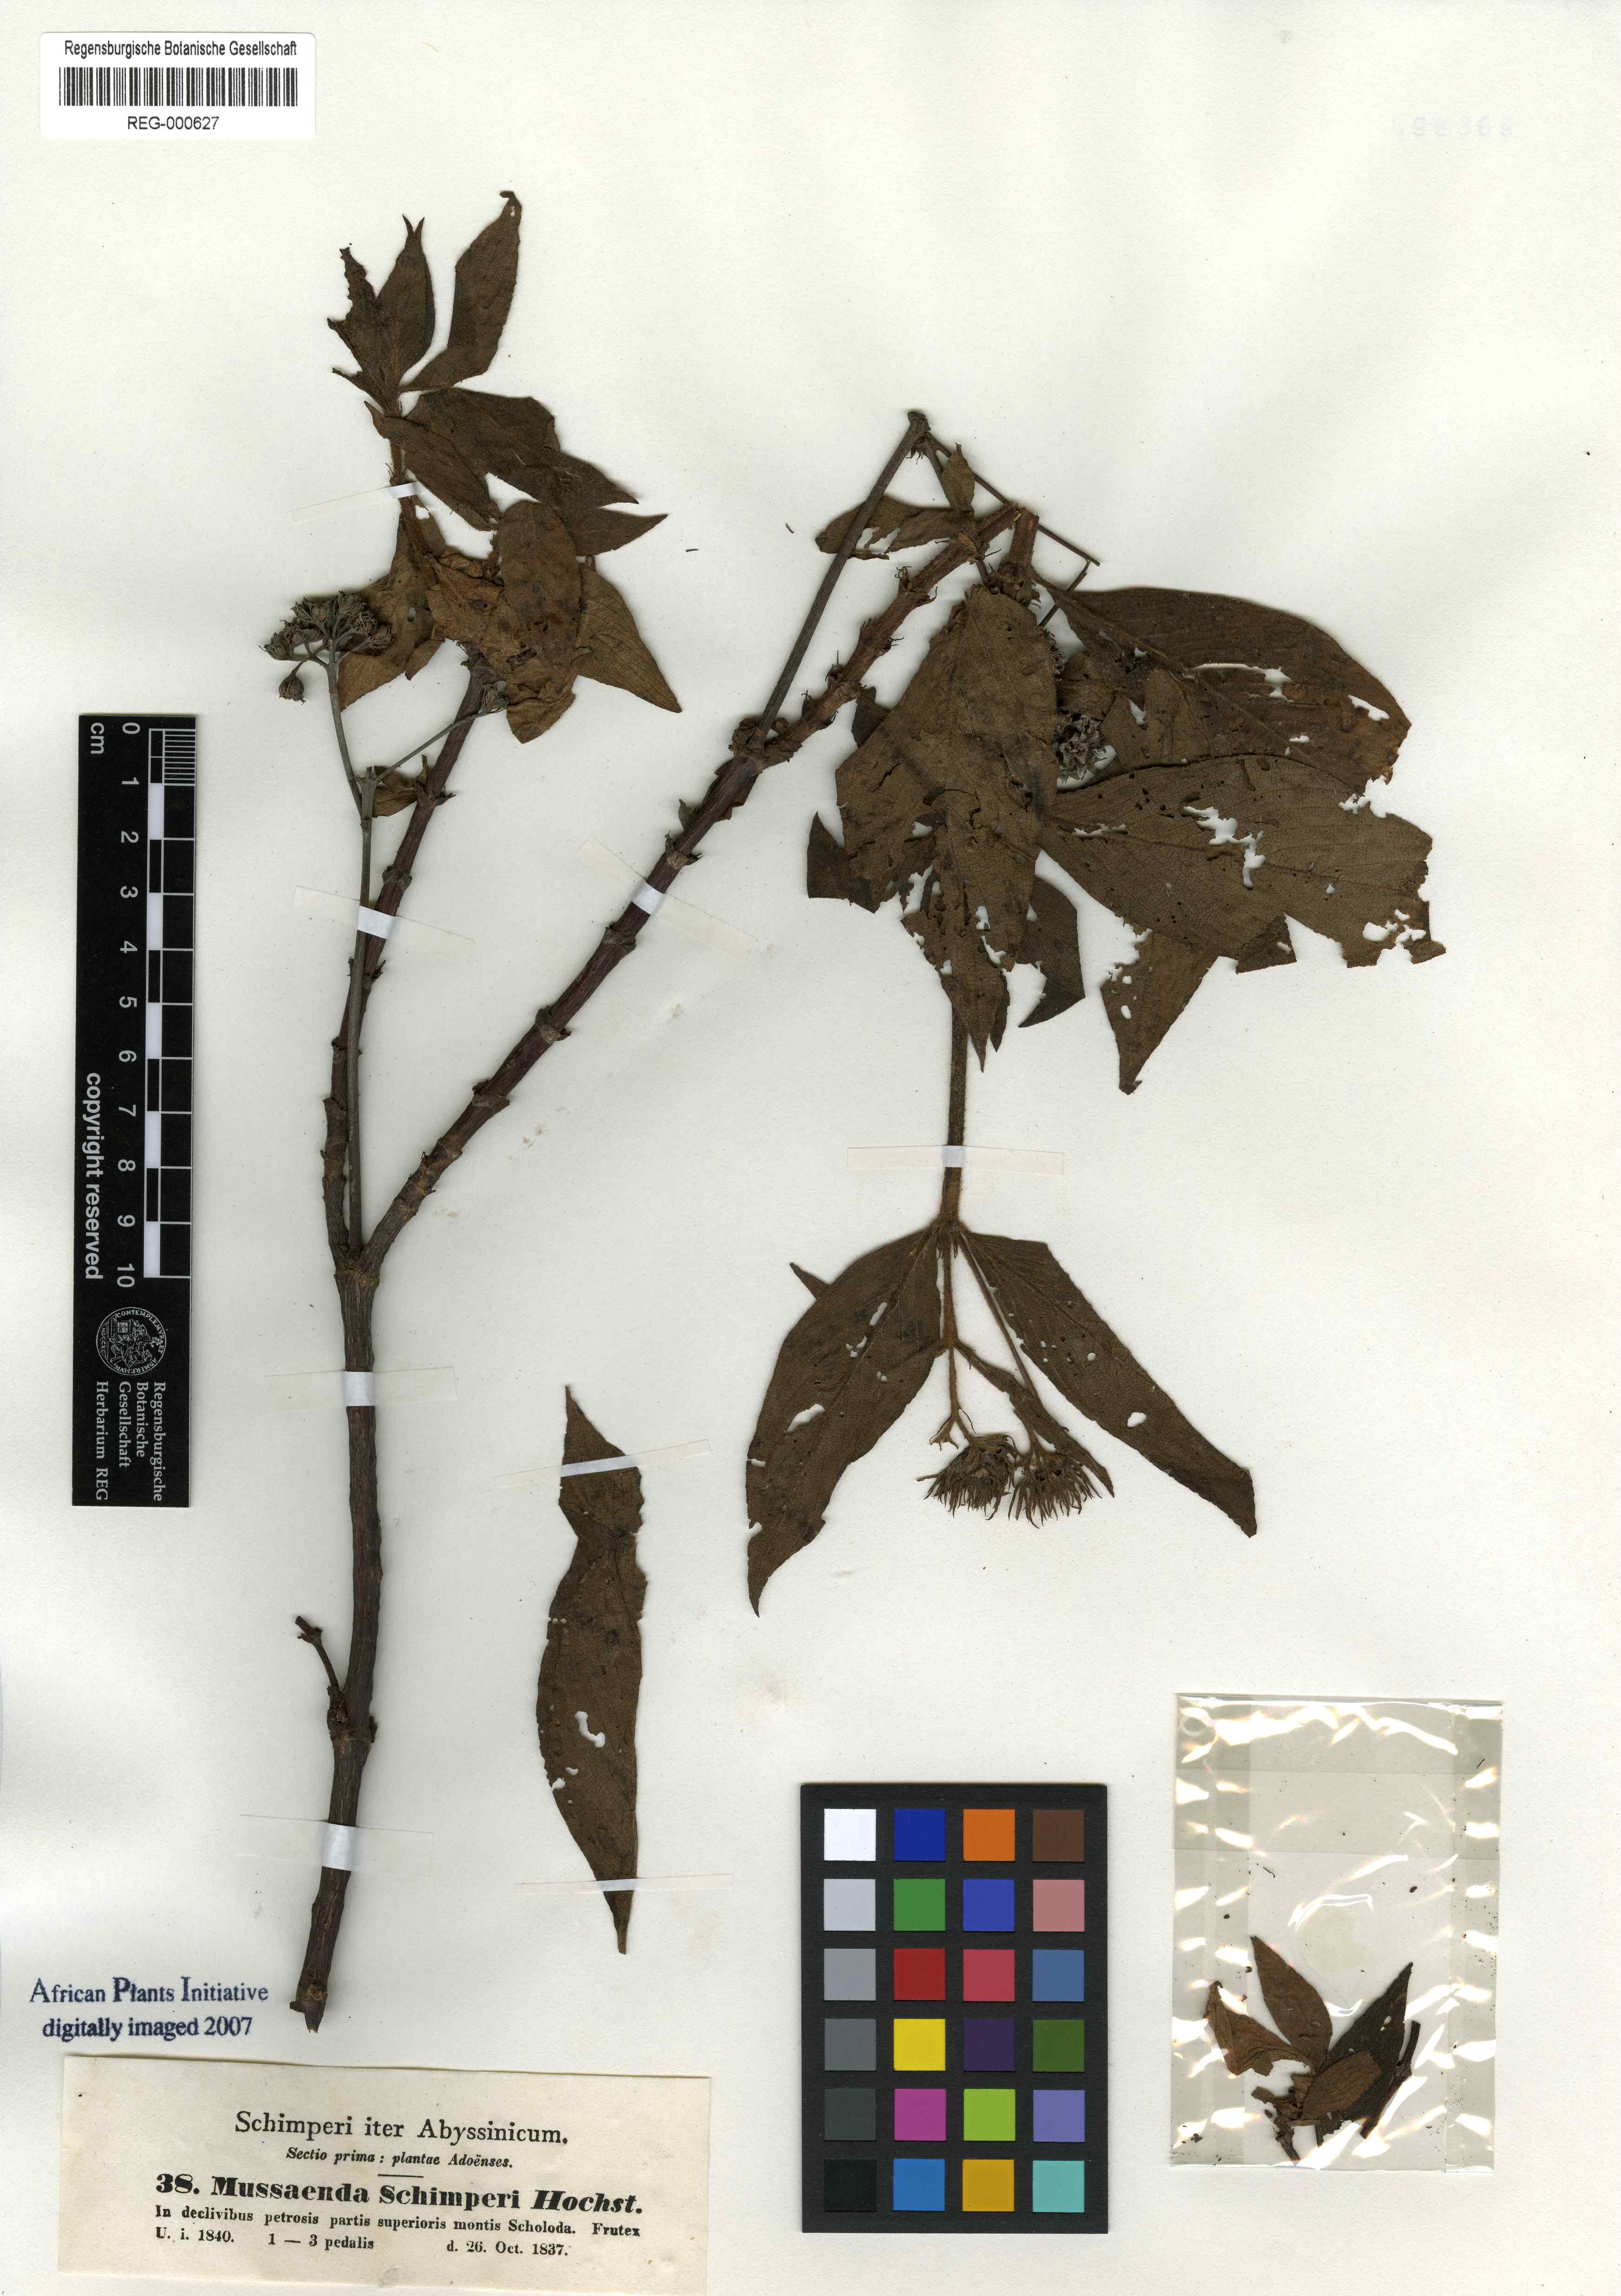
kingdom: Plantae
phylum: Tracheophyta
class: Magnoliopsida
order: Gentianales
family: Rubiaceae
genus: Phyllopentas
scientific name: Phyllopentas schimperi
